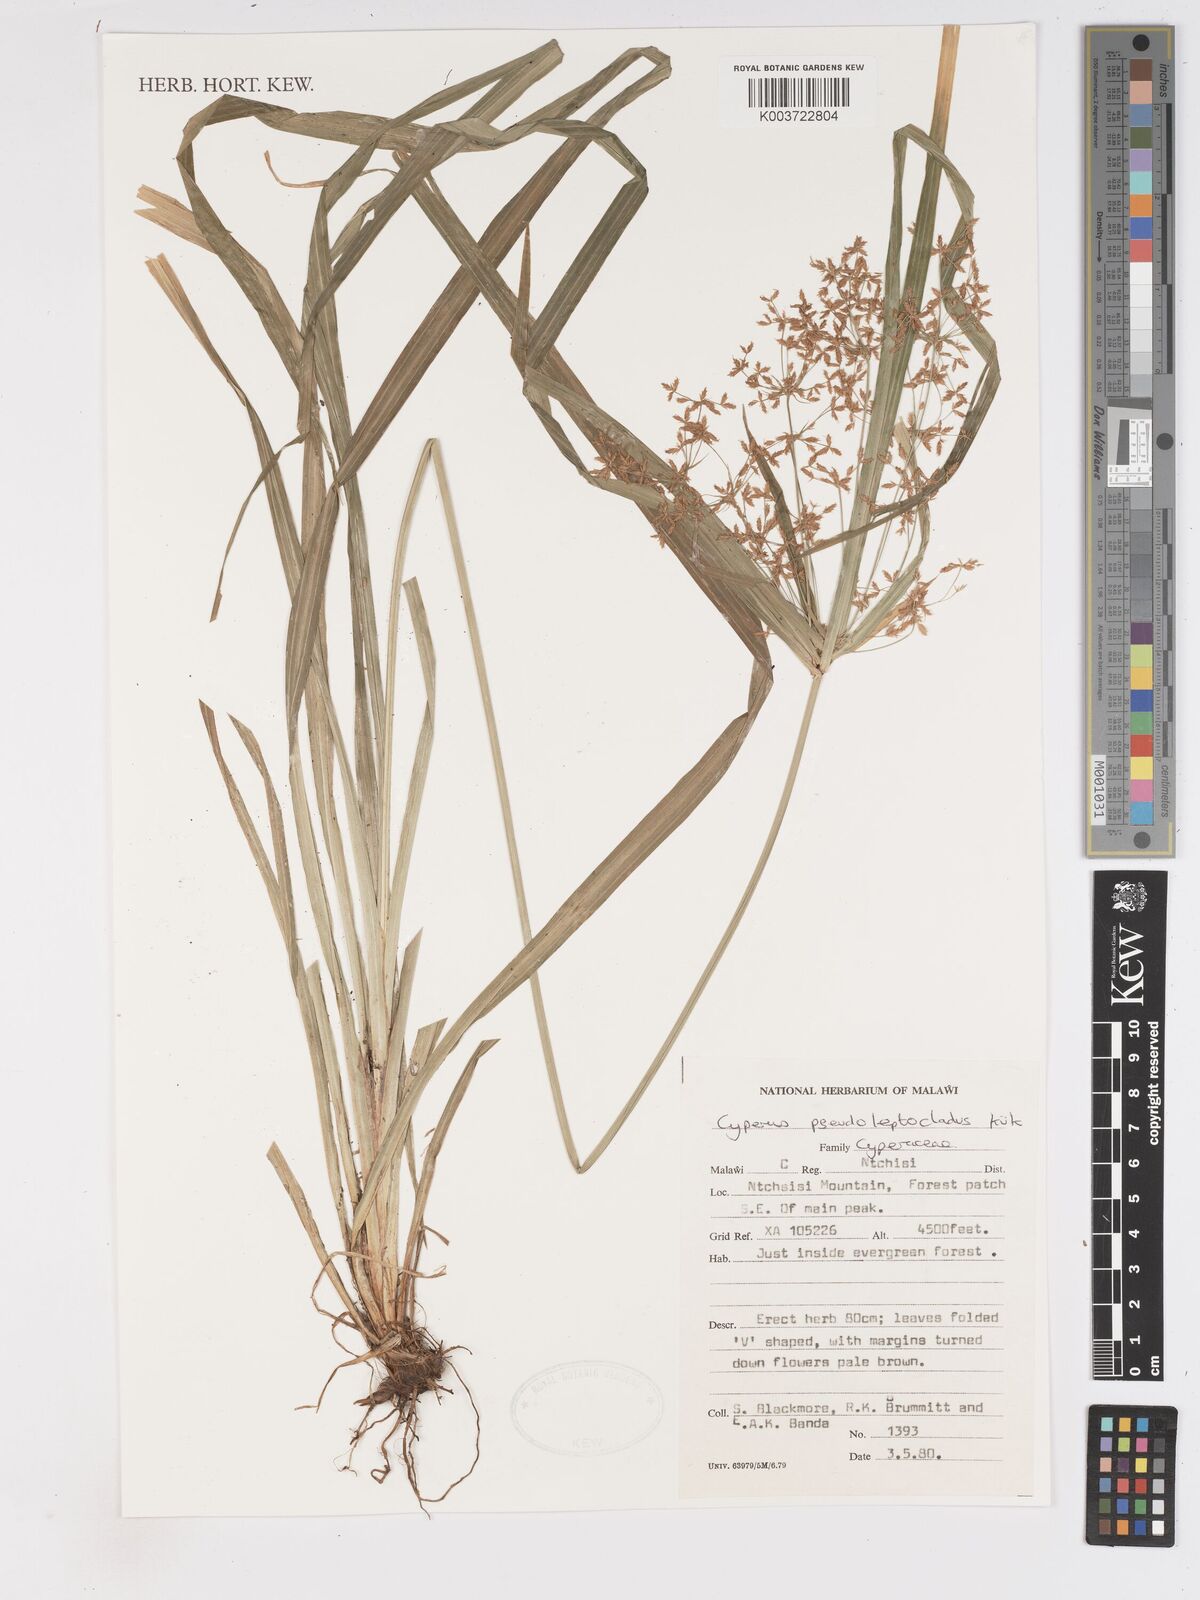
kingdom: Plantae
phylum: Tracheophyta
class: Liliopsida
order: Poales
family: Cyperaceae
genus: Cyperus
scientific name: Cyperus glaucophyllus
